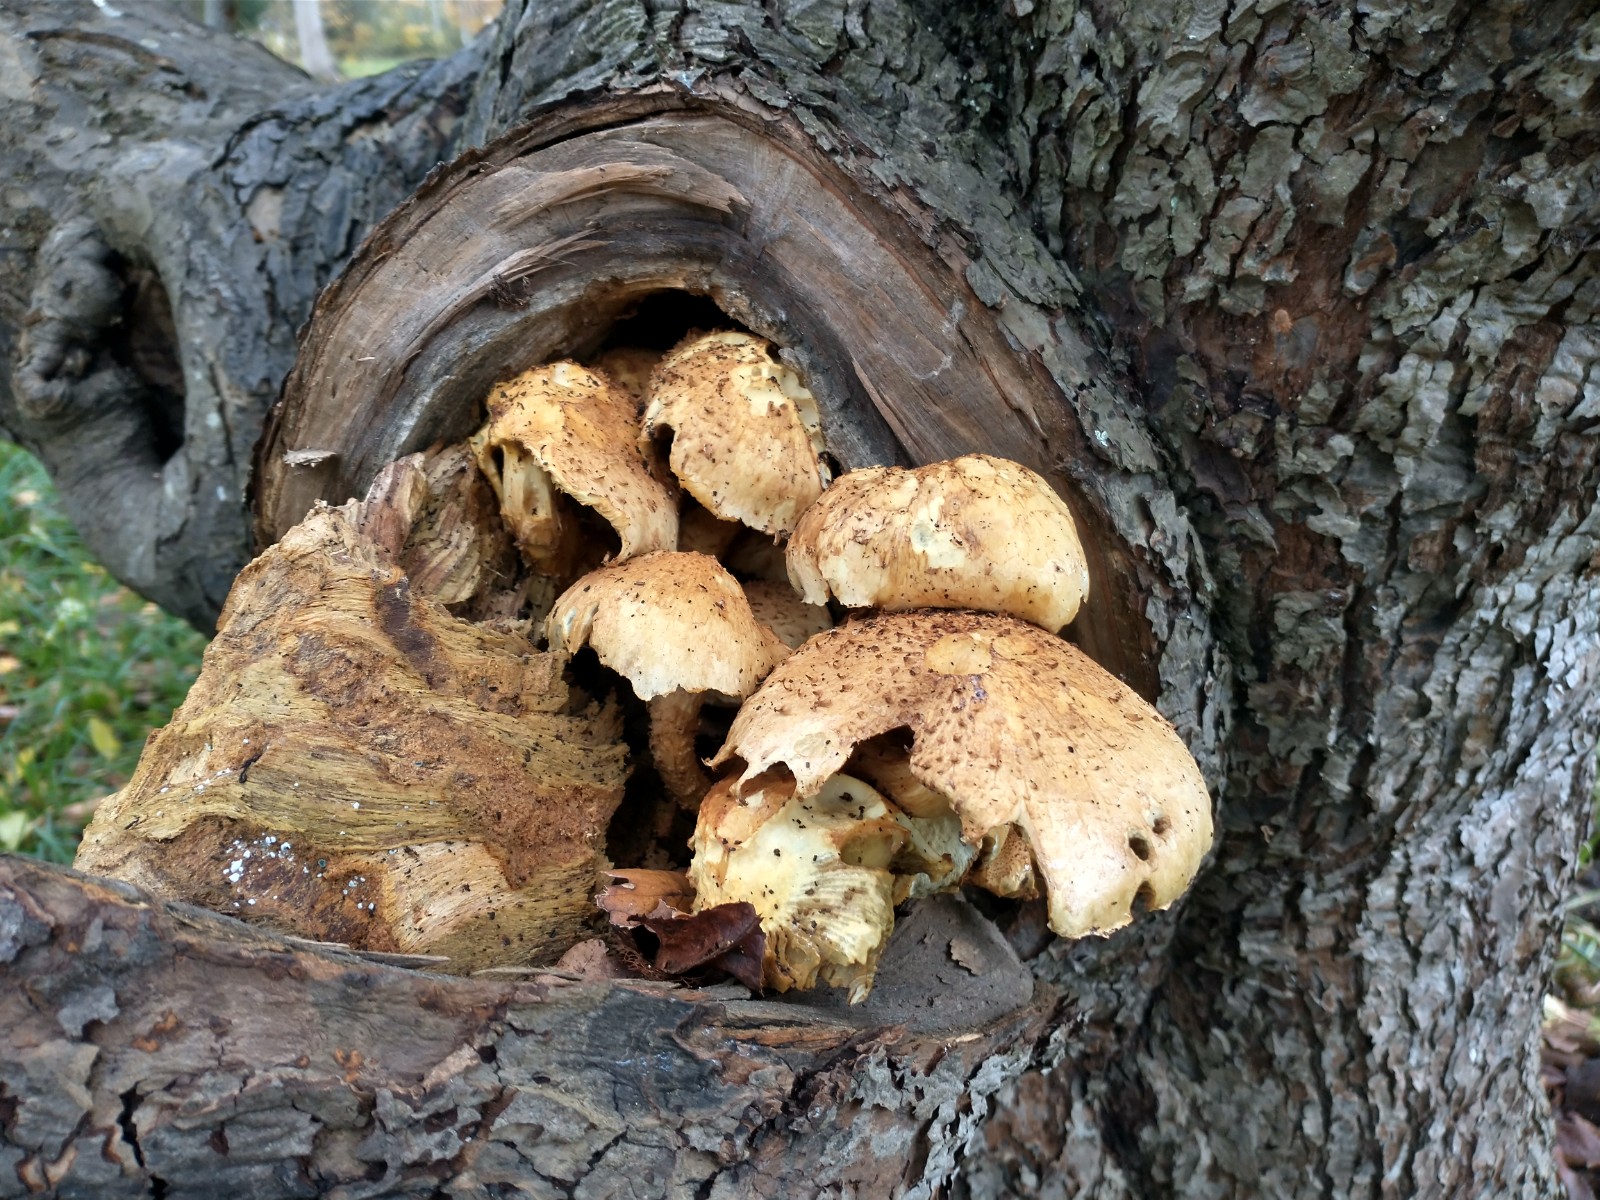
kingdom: Fungi
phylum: Basidiomycota
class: Agaricomycetes
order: Agaricales
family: Strophariaceae
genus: Pholiota
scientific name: Pholiota squarrosa
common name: krumskællet skælhat
